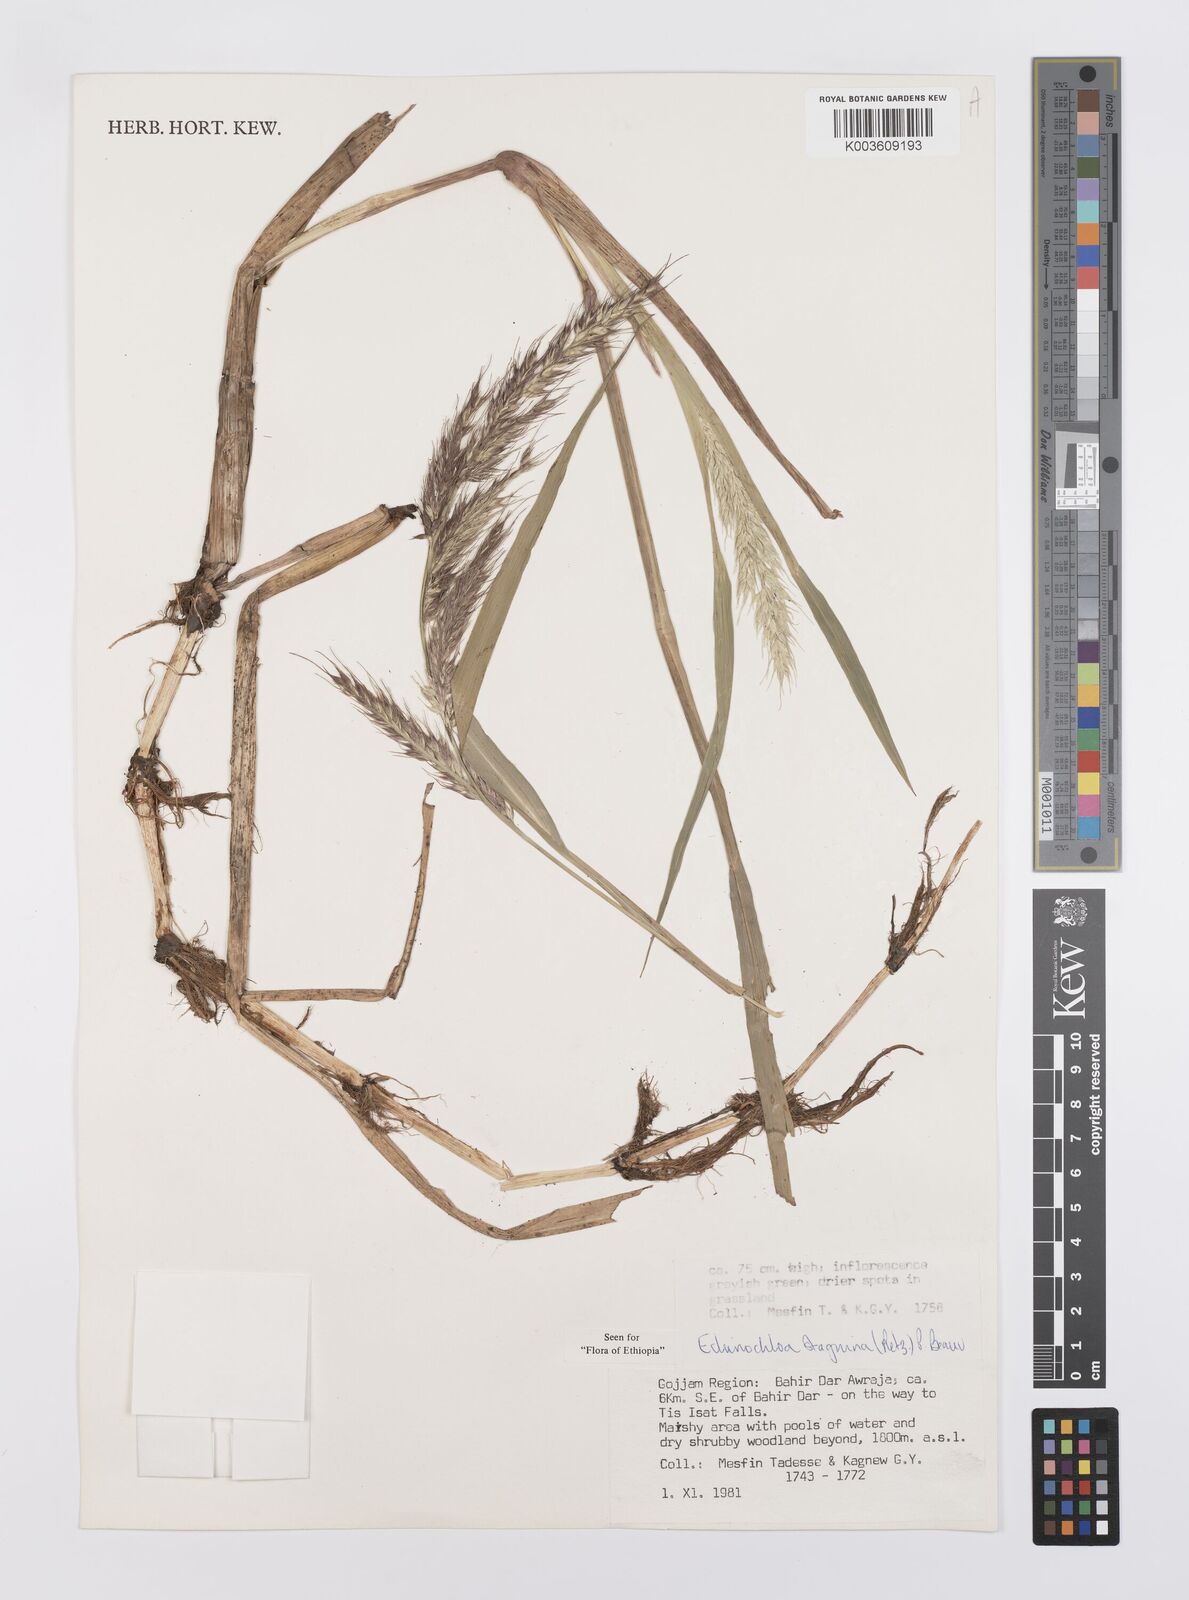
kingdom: Plantae
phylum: Tracheophyta
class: Liliopsida
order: Poales
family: Poaceae
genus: Echinochloa
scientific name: Echinochloa stagnina
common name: Burgu grass
